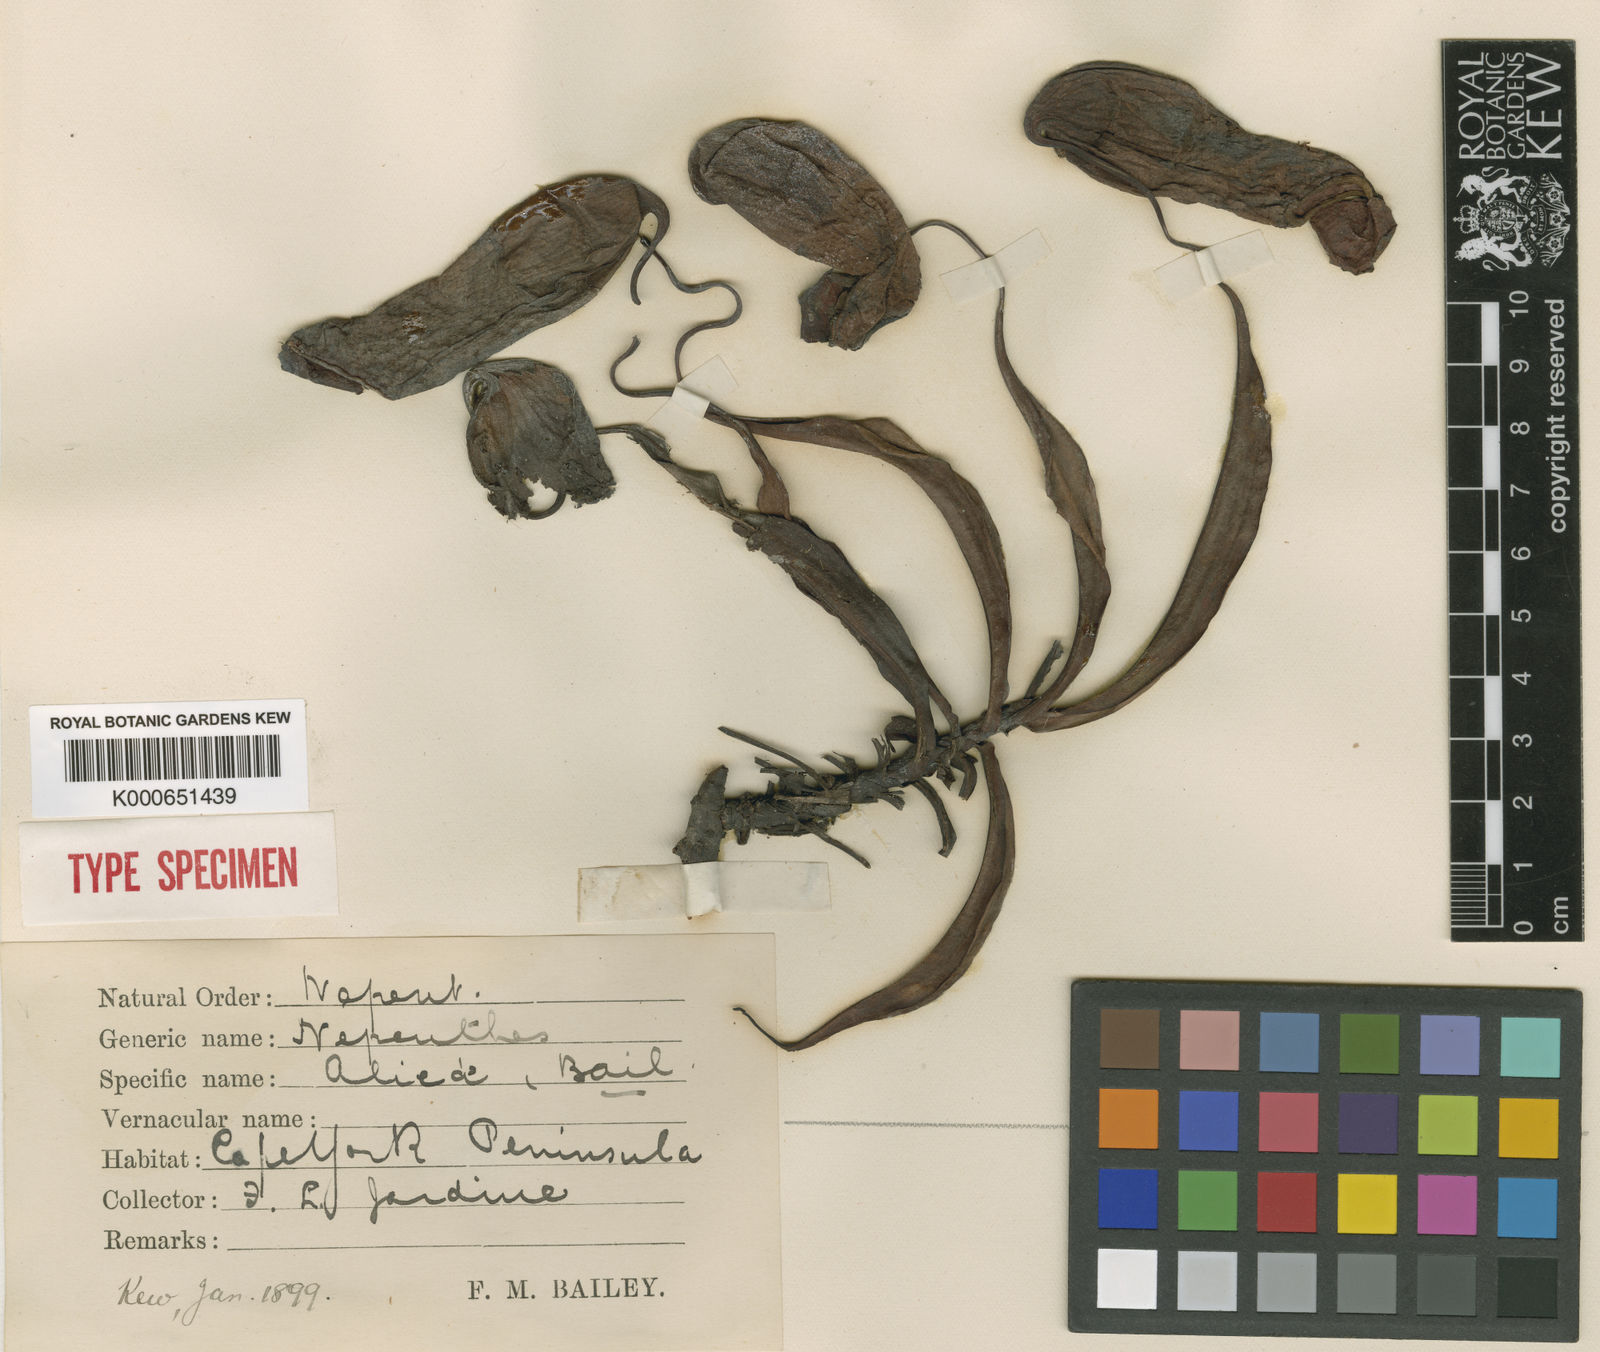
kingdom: Plantae
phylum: Tracheophyta
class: Magnoliopsida
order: Caryophyllales
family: Nepenthaceae
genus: Nepenthes
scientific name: Nepenthes mirabilis
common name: Tropical pitcherplant
